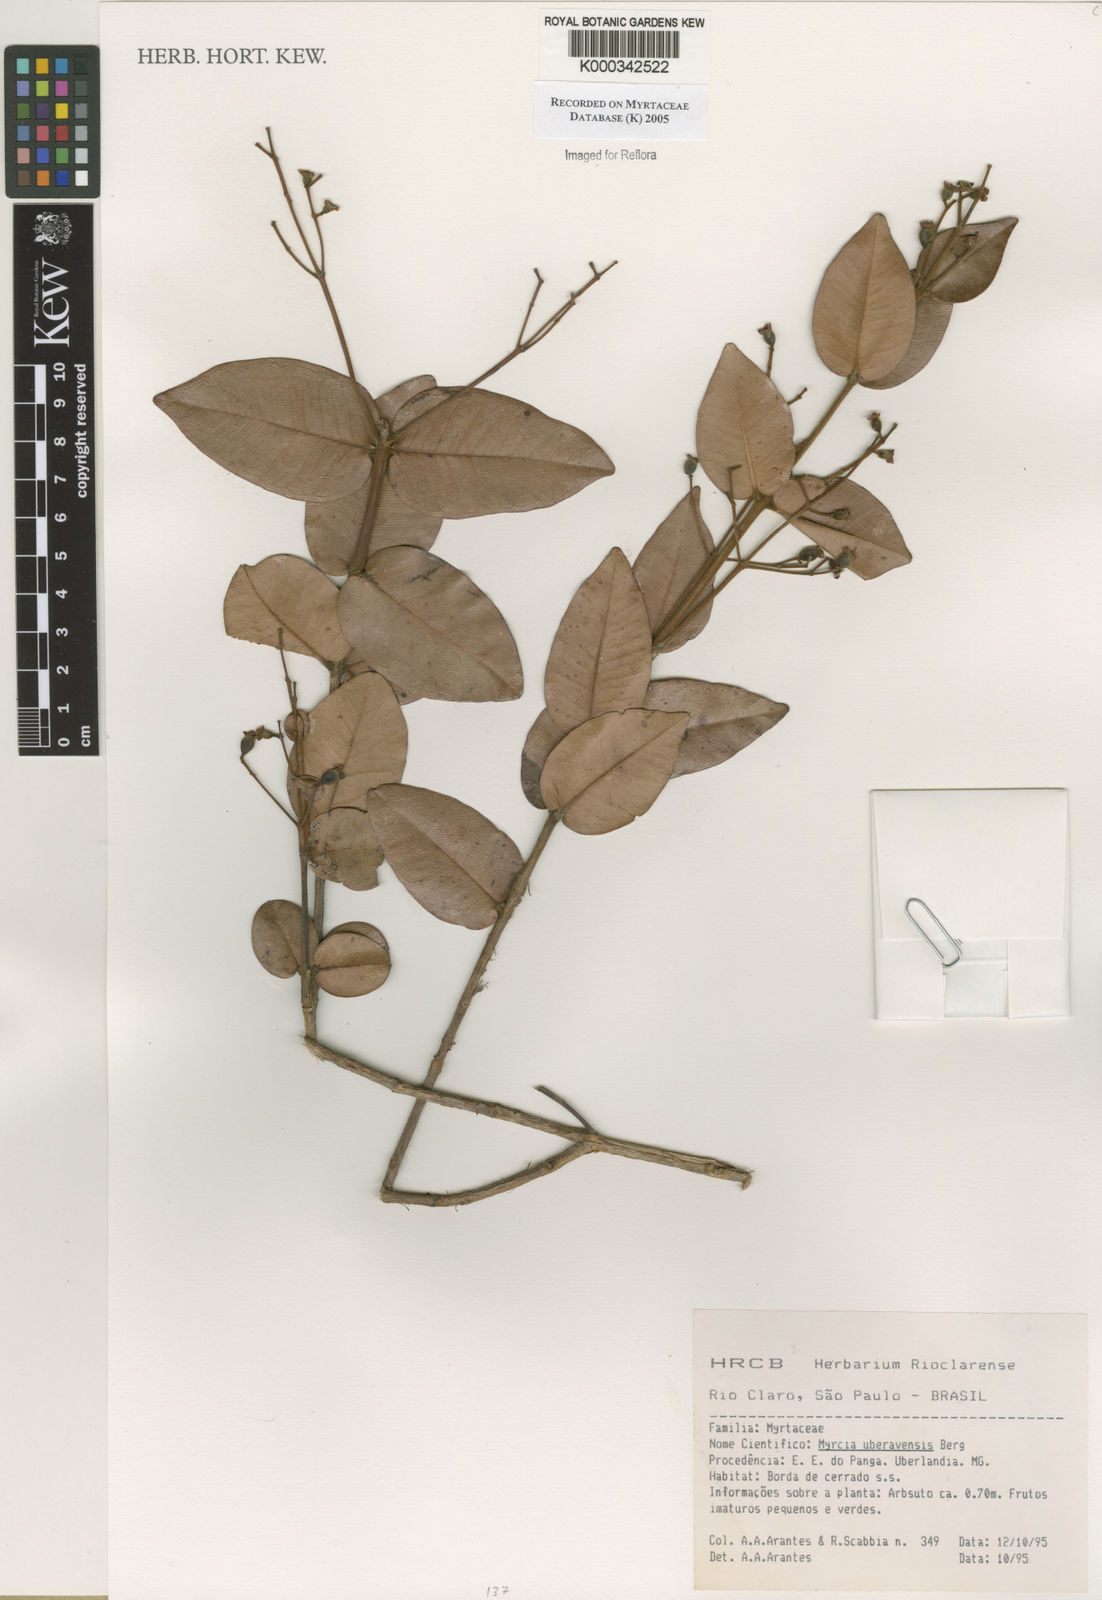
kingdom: Plantae
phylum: Tracheophyta
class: Magnoliopsida
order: Myrtales
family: Myrtaceae
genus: Myrcia
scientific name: Myrcia uberavensis
